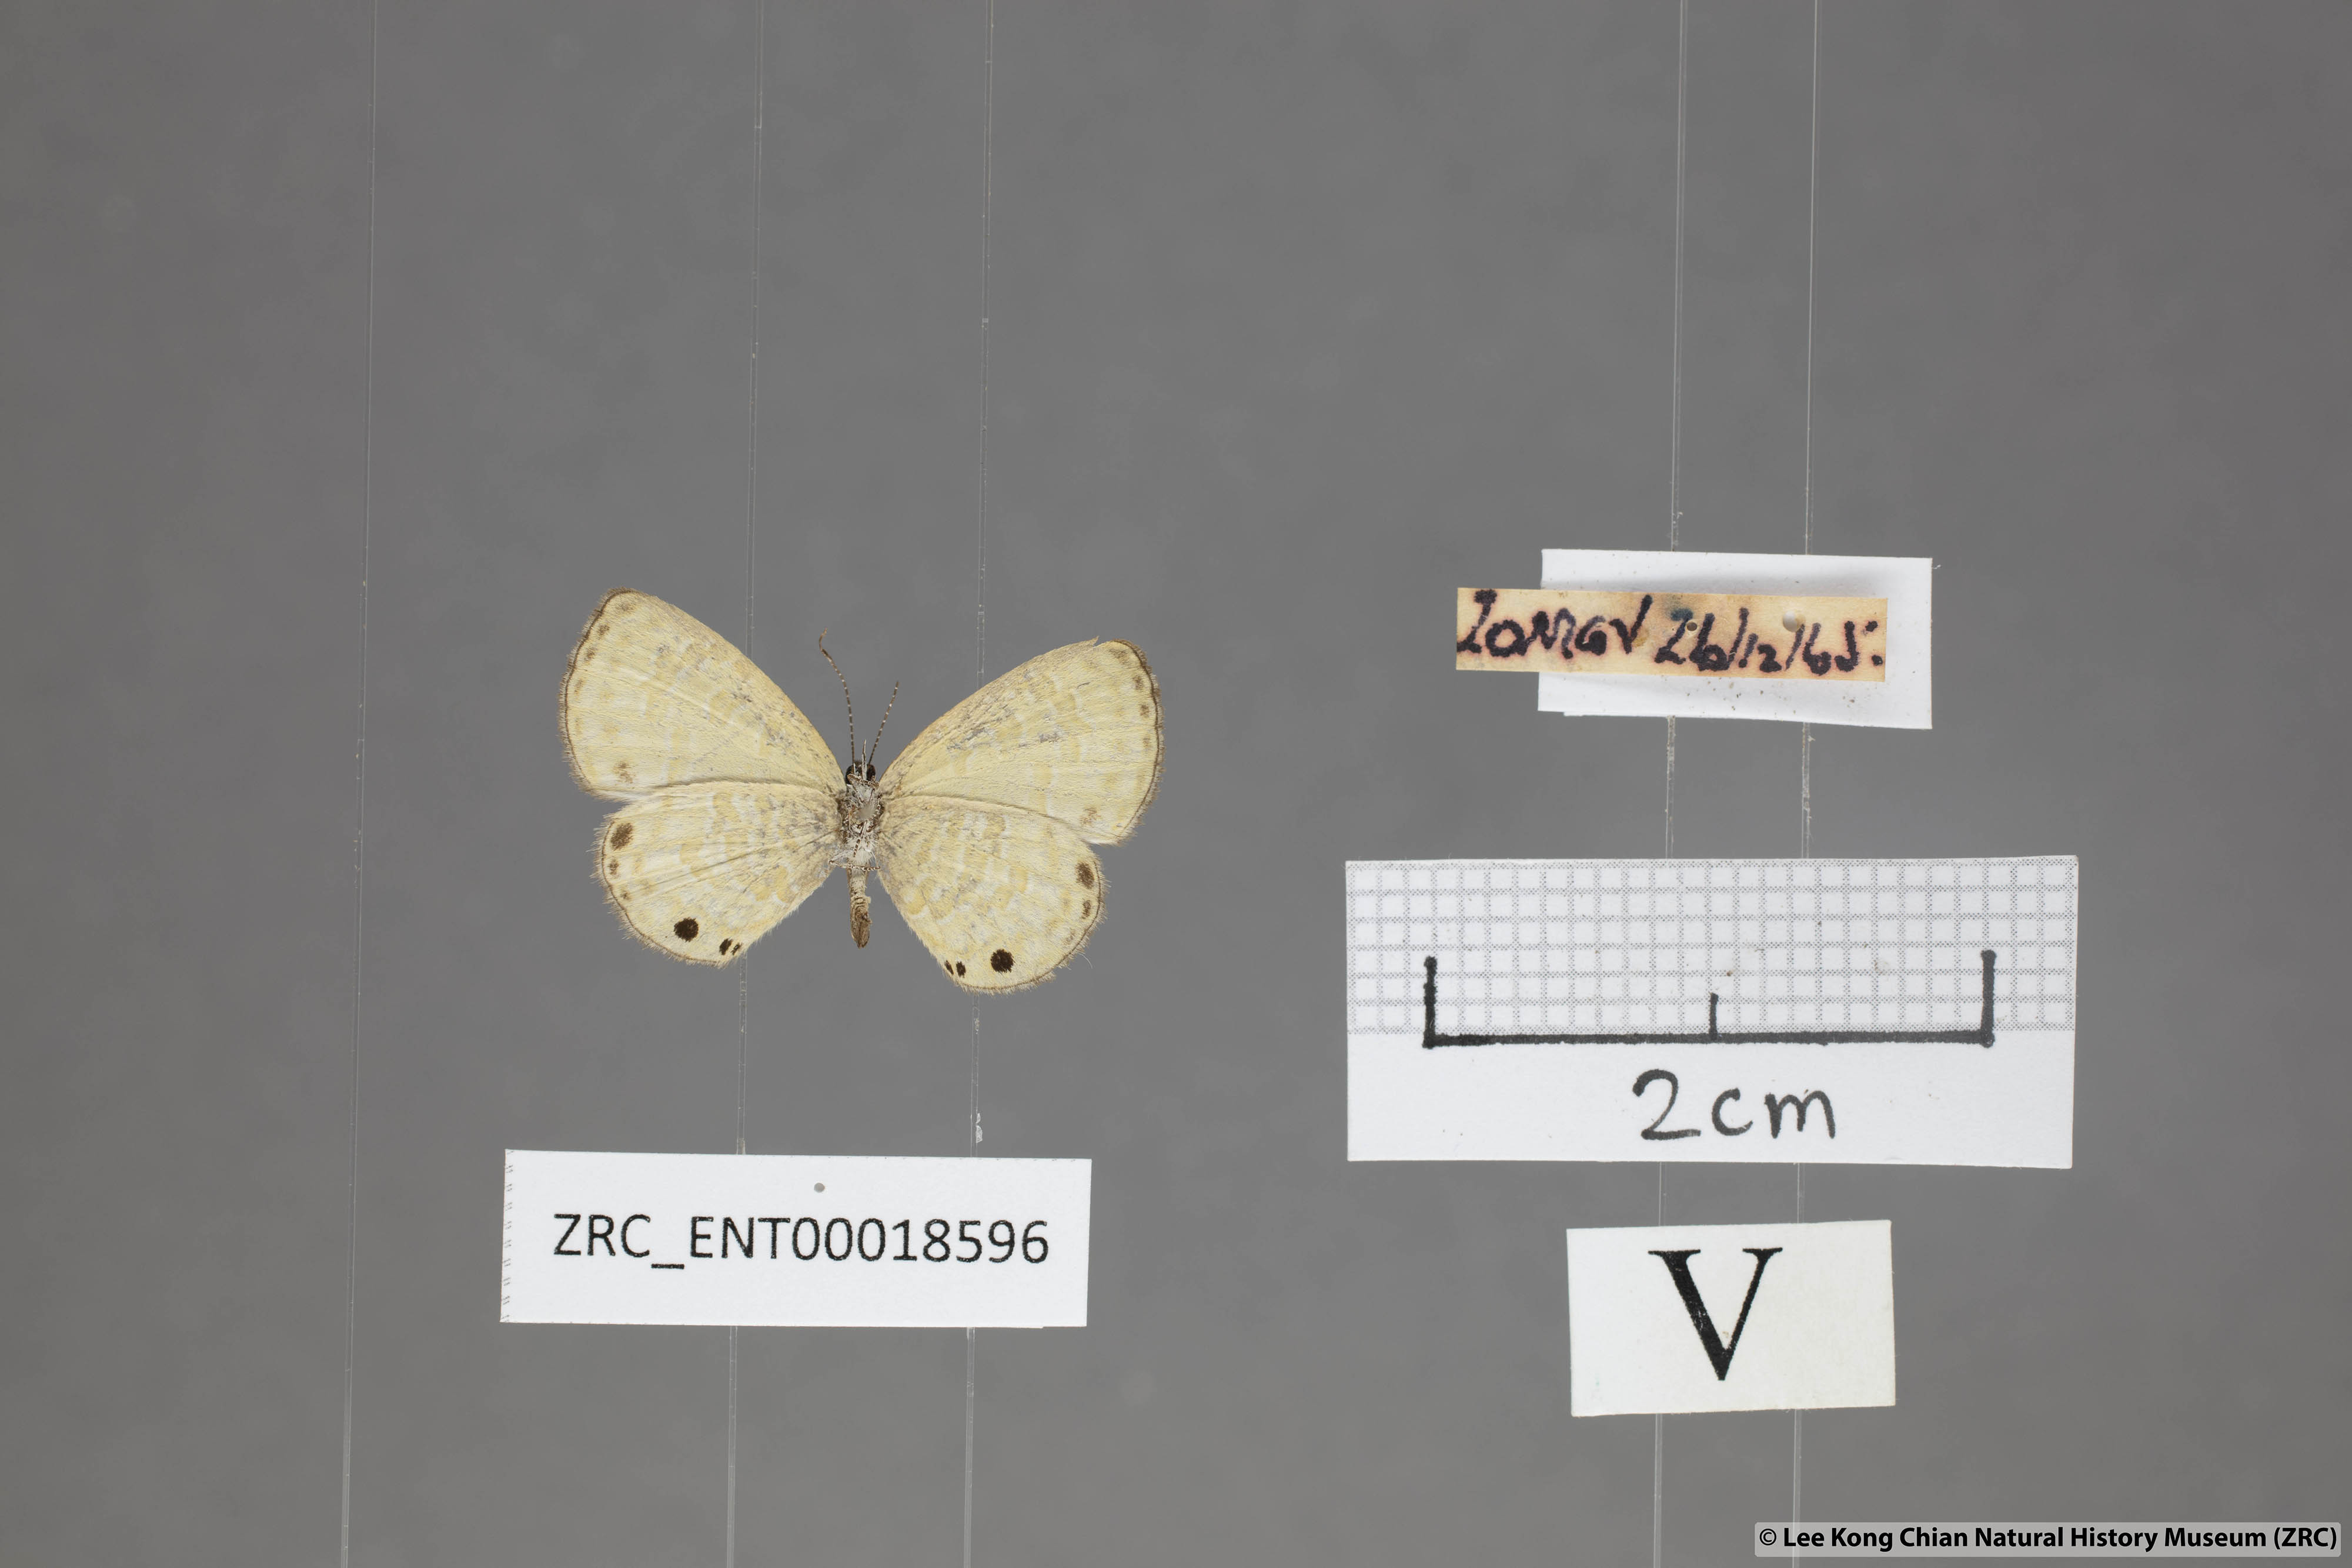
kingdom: Animalia
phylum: Arthropoda
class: Insecta
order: Lepidoptera
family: Lycaenidae
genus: Prosotas
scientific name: Prosotas lutea
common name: Brown lineblue
